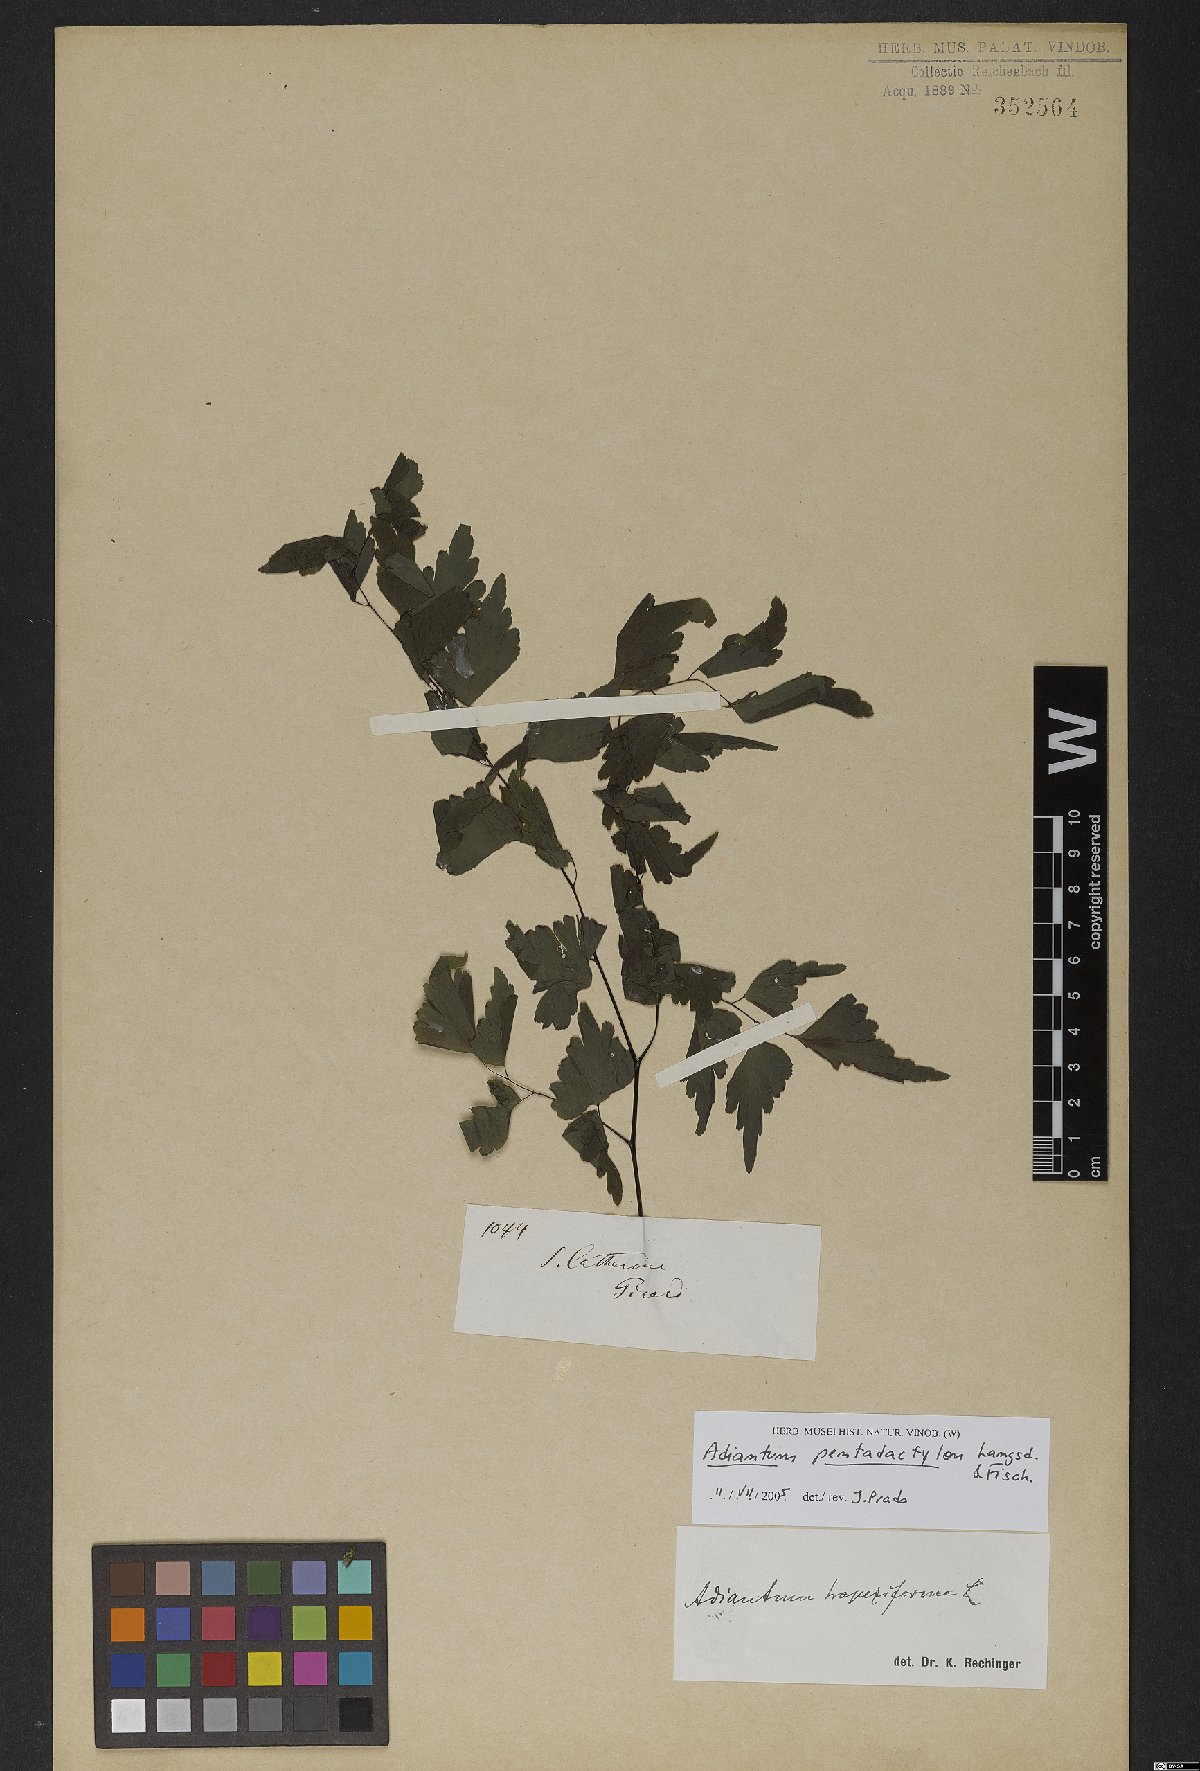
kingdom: Plantae
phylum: Tracheophyta
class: Polypodiopsida
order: Polypodiales
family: Pteridaceae
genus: Adiantum
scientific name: Adiantum pentadactylon
